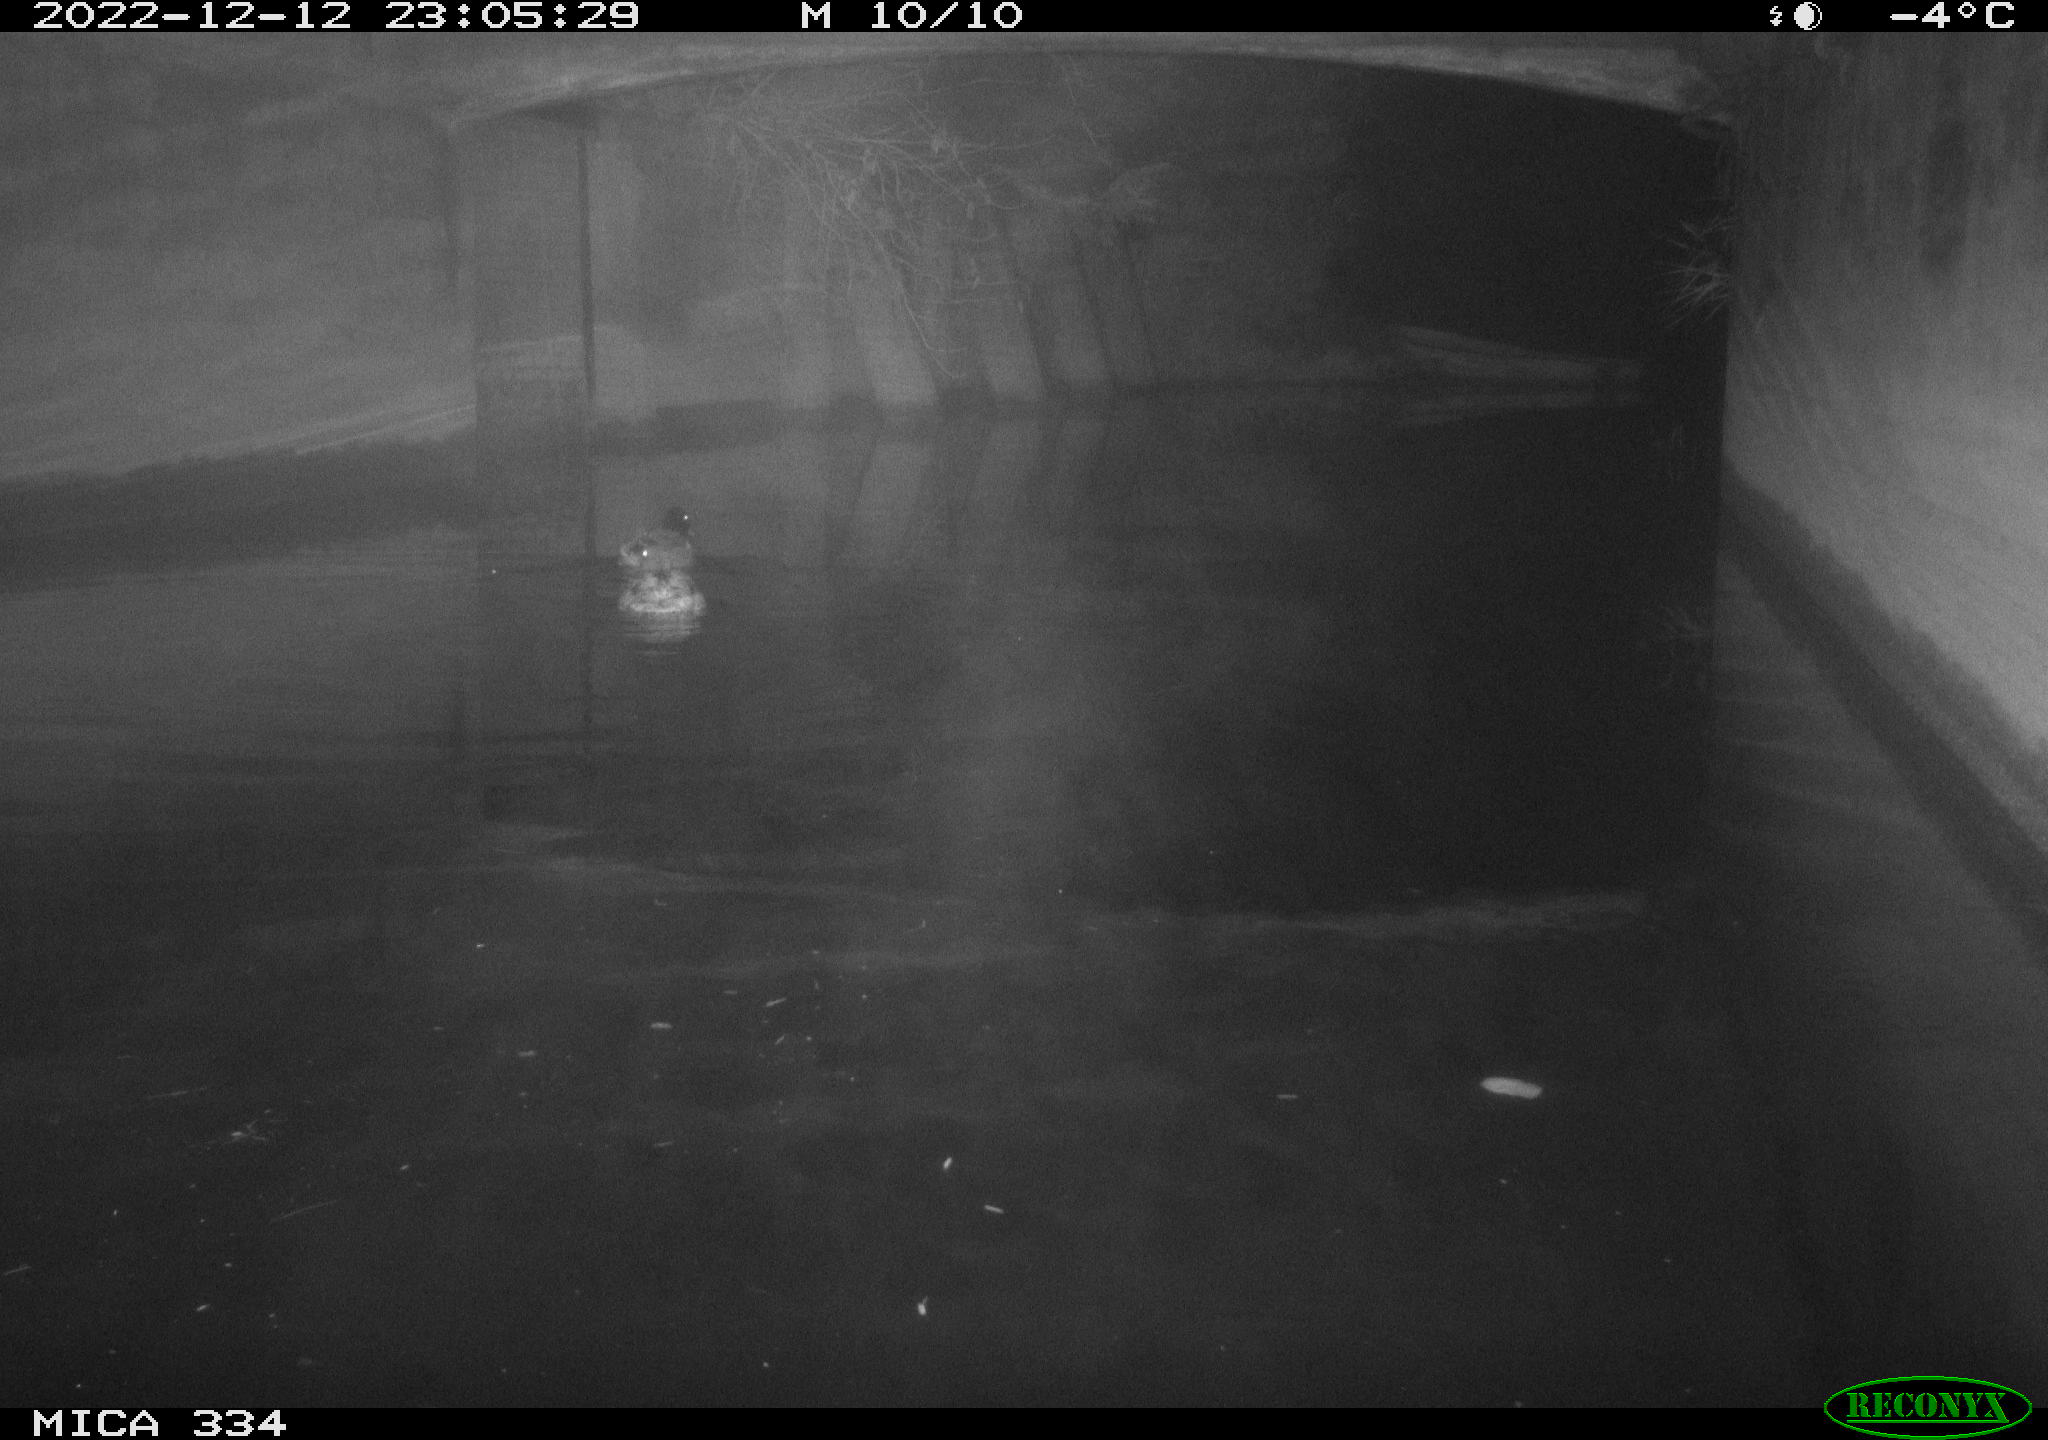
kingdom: Animalia
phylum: Chordata
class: Aves
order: Anseriformes
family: Anatidae
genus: Anas
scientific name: Anas
